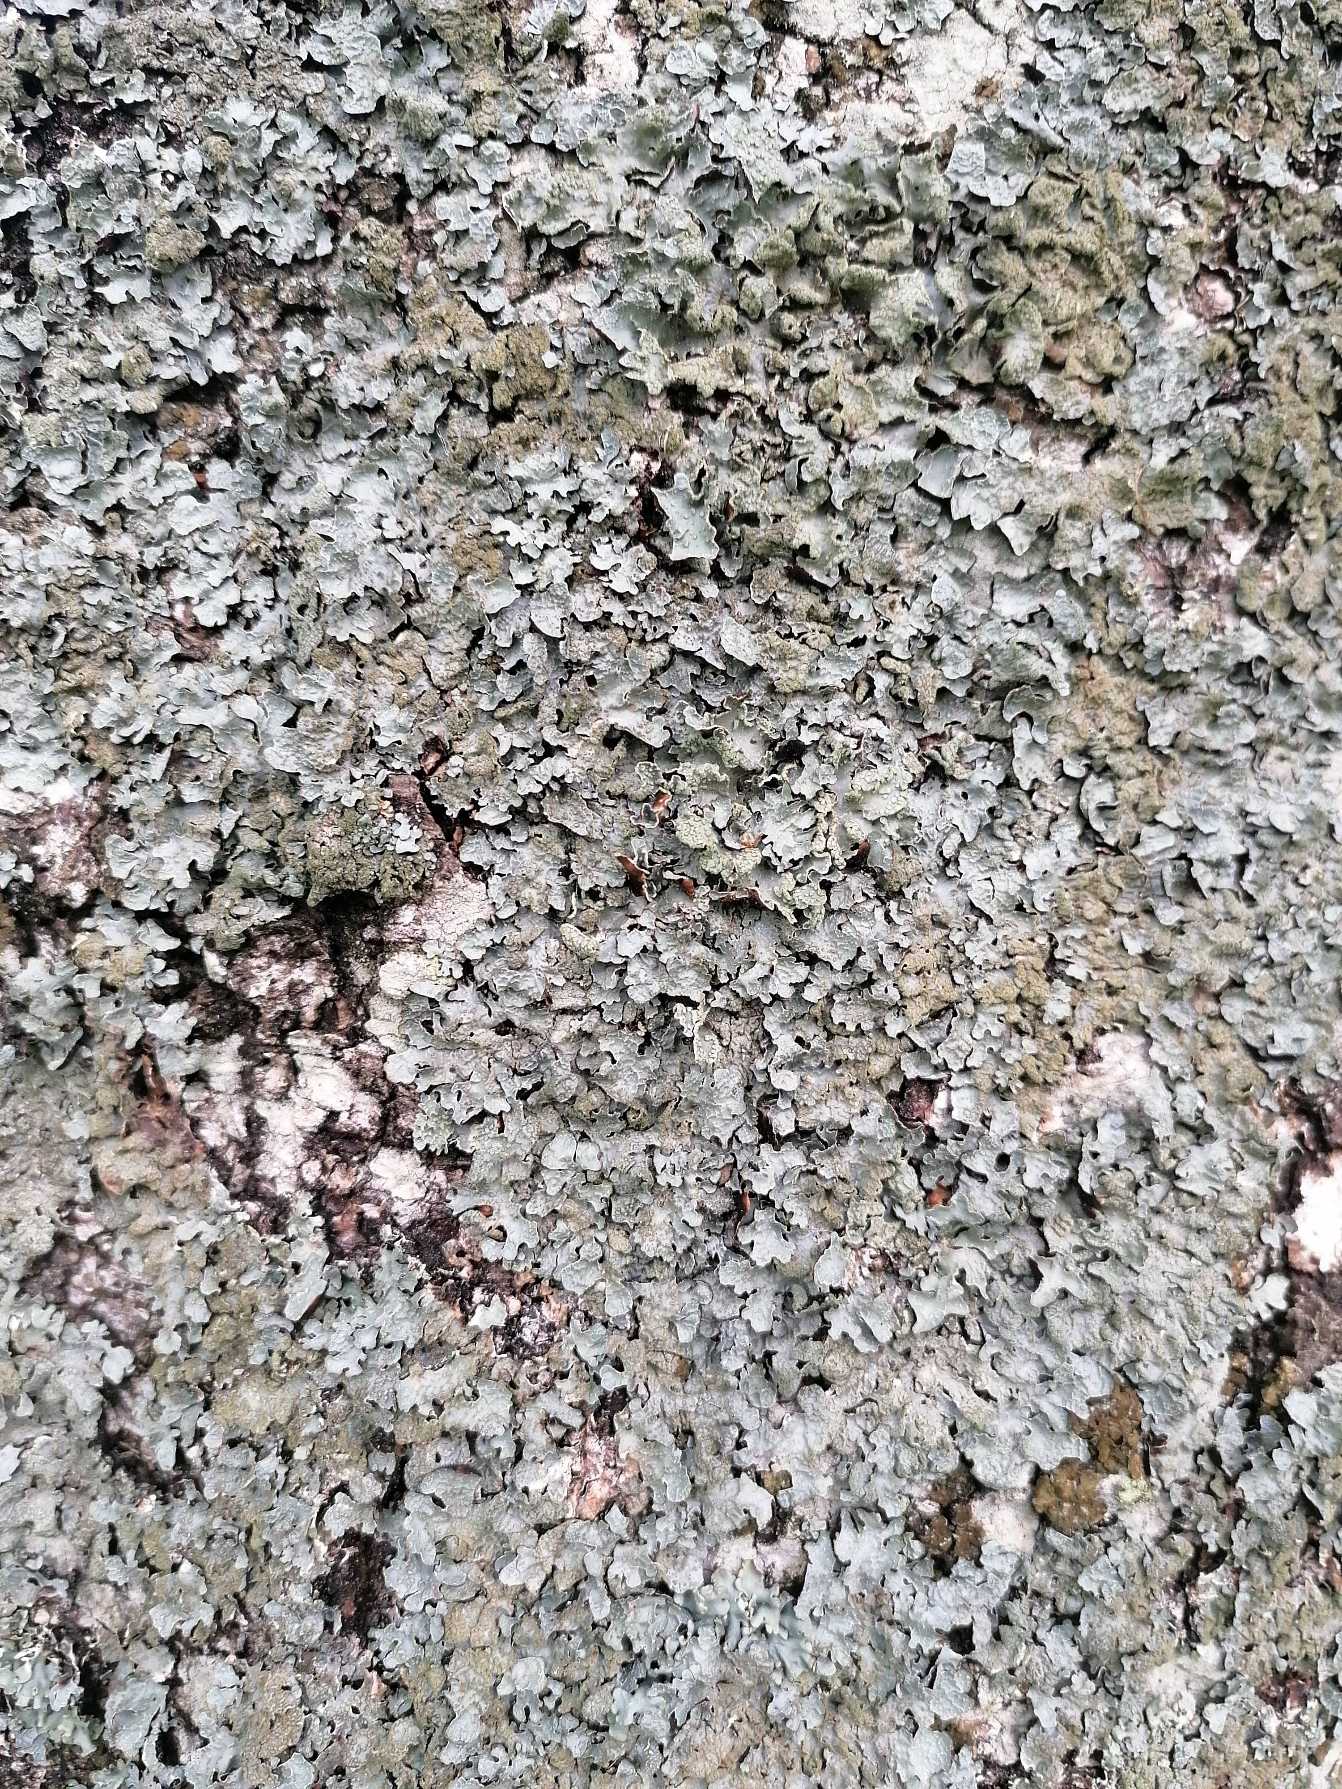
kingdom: Fungi
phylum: Ascomycota
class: Lecanoromycetes
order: Lecanorales
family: Parmeliaceae
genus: Parmelia
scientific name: Parmelia sulcata
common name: Rynket skållav
